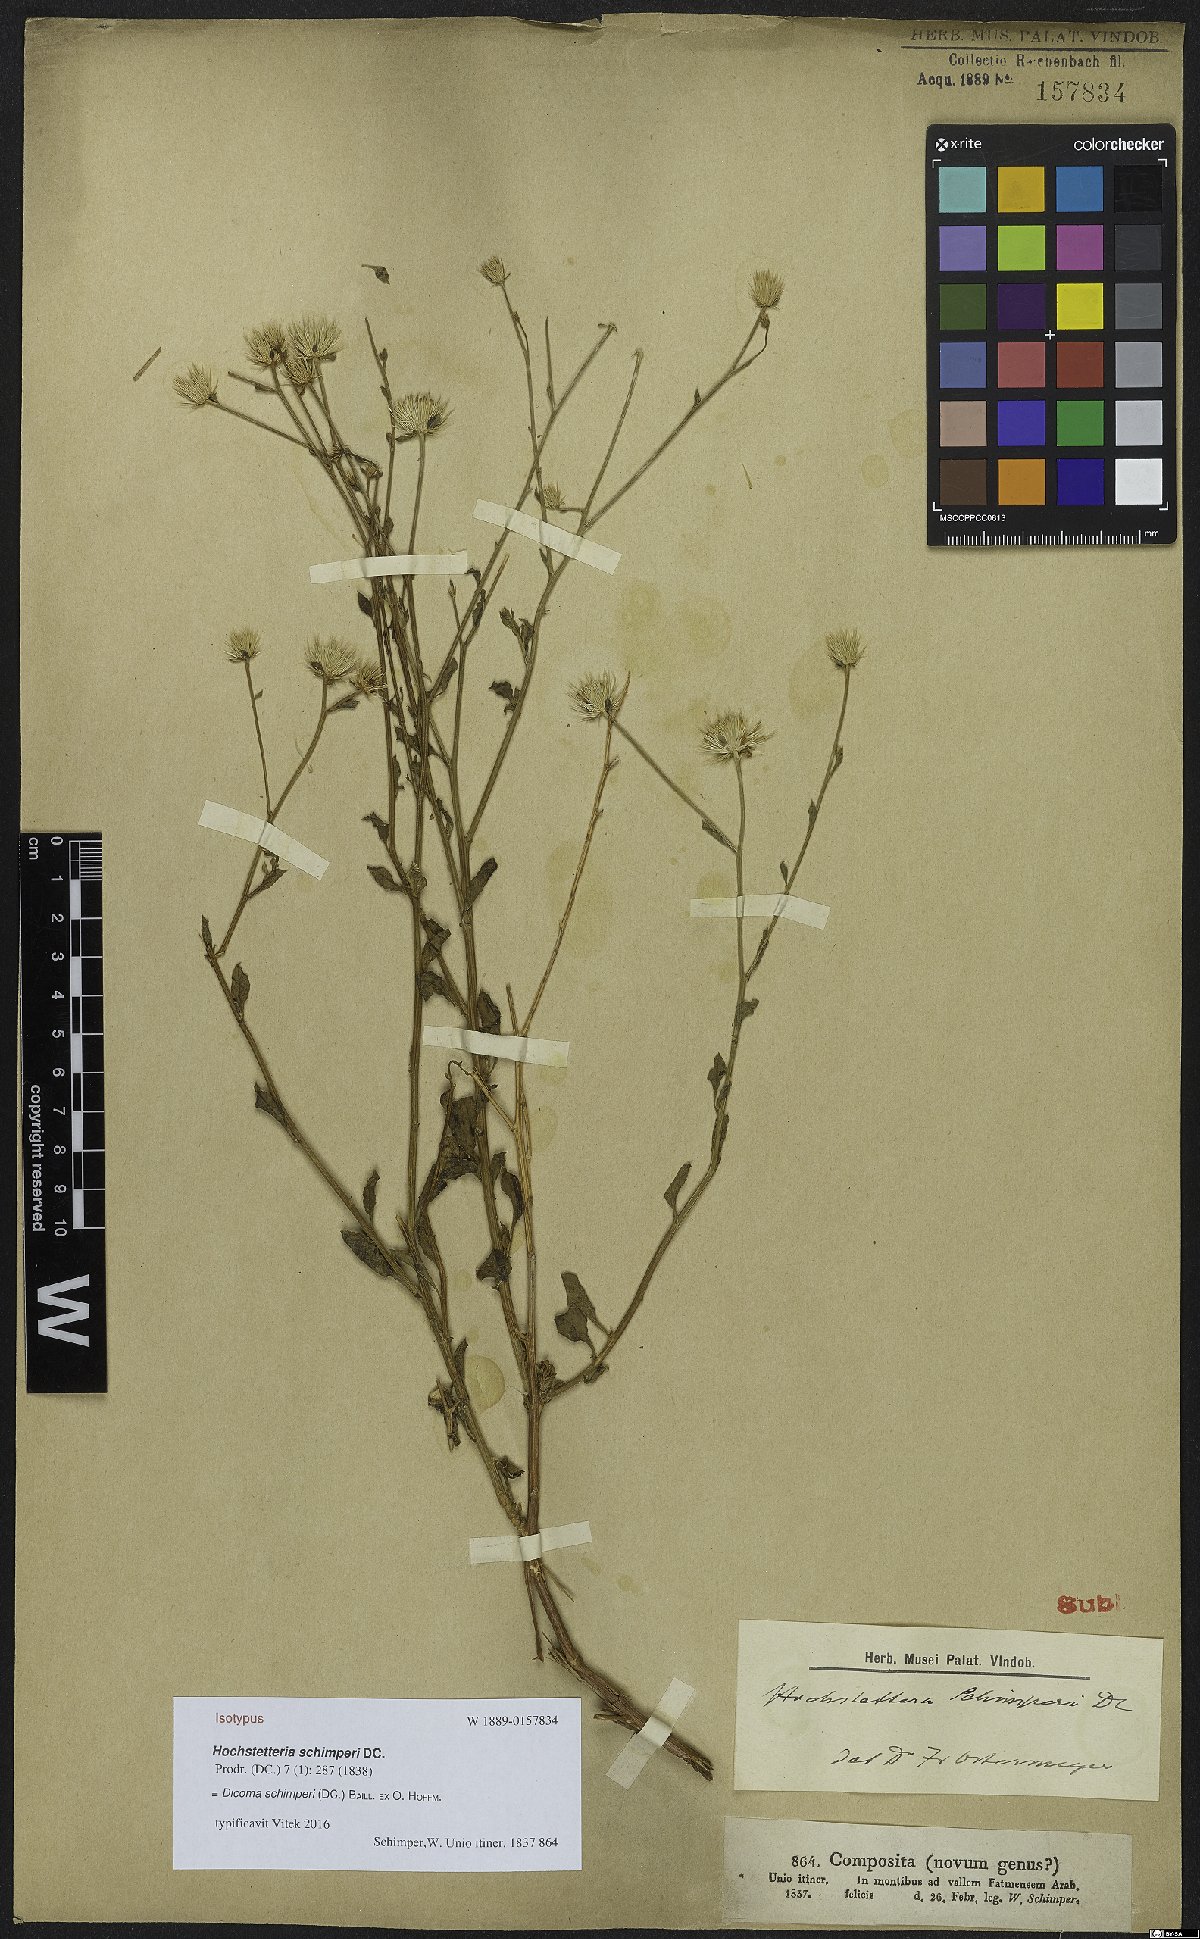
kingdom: Plantae
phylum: Tracheophyta
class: Magnoliopsida
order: Asterales
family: Asteraceae
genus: Dicoma
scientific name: Dicoma schimperi
